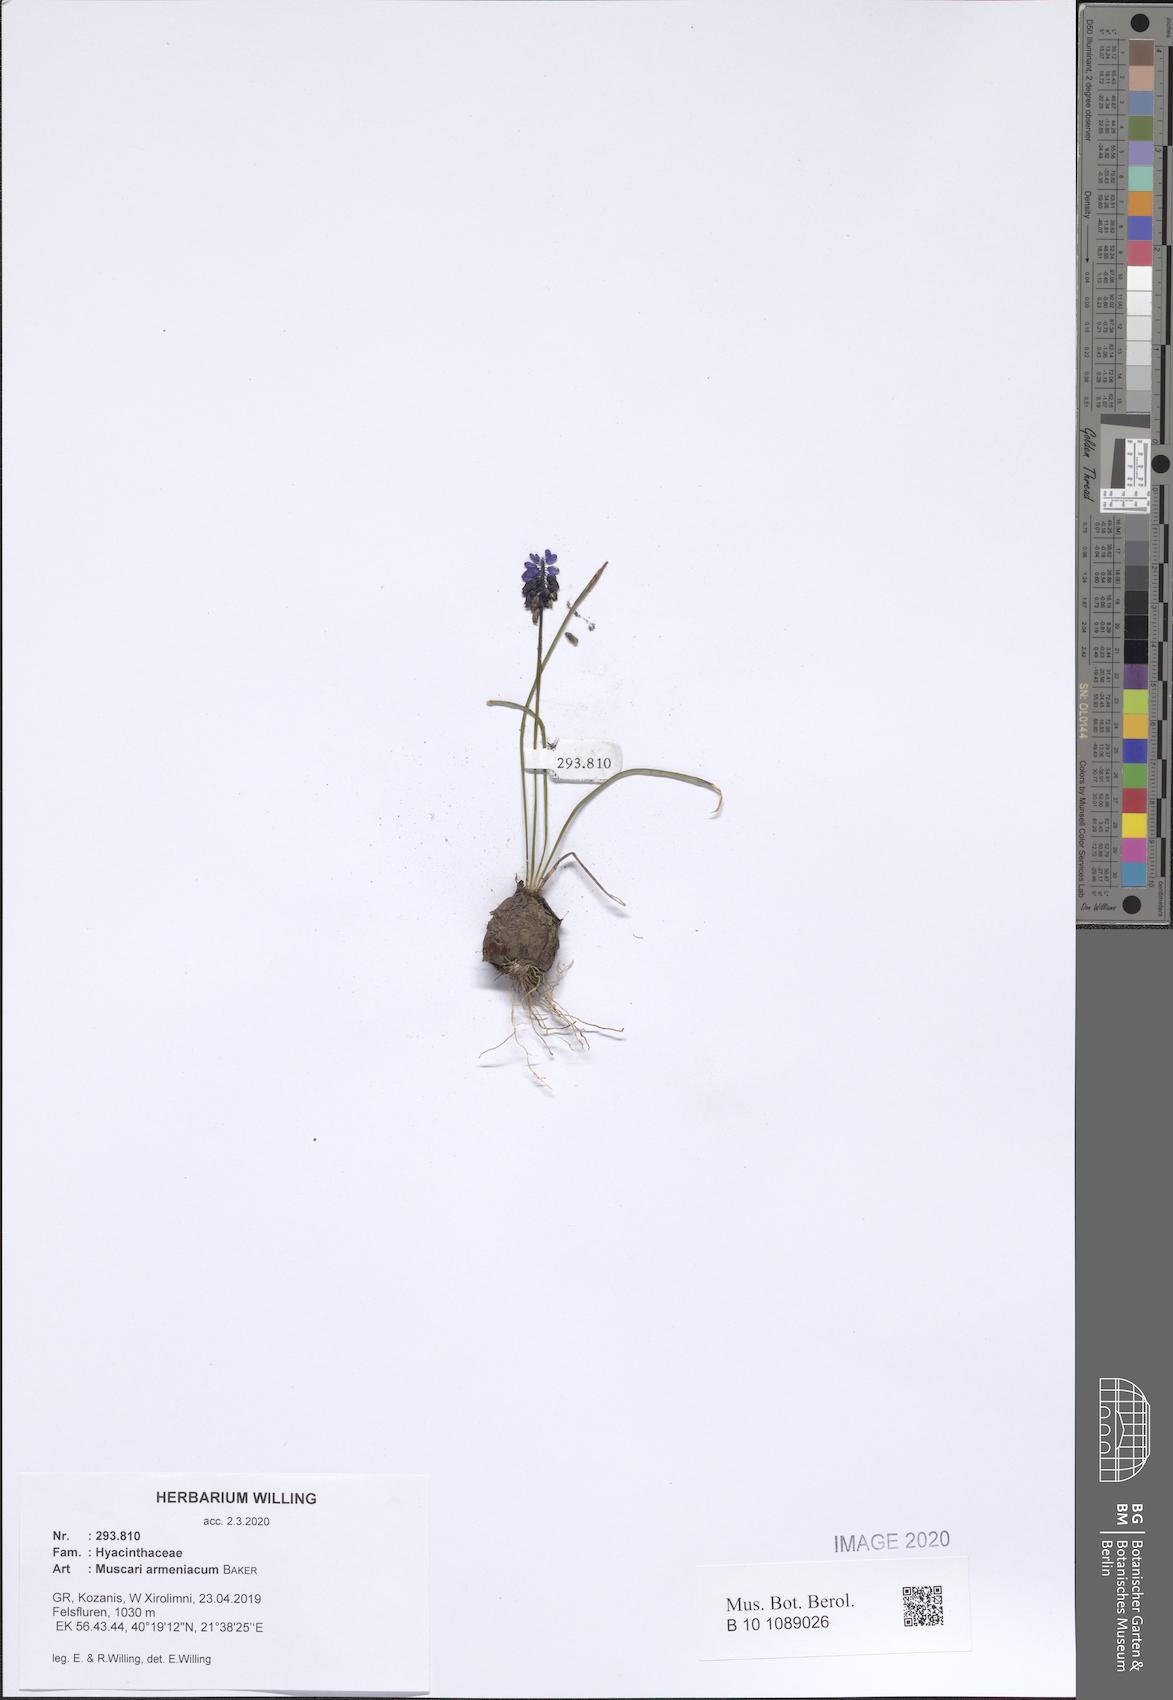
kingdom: Plantae
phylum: Tracheophyta
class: Liliopsida
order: Asparagales
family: Asparagaceae
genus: Muscari
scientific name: Muscari armeniacum
